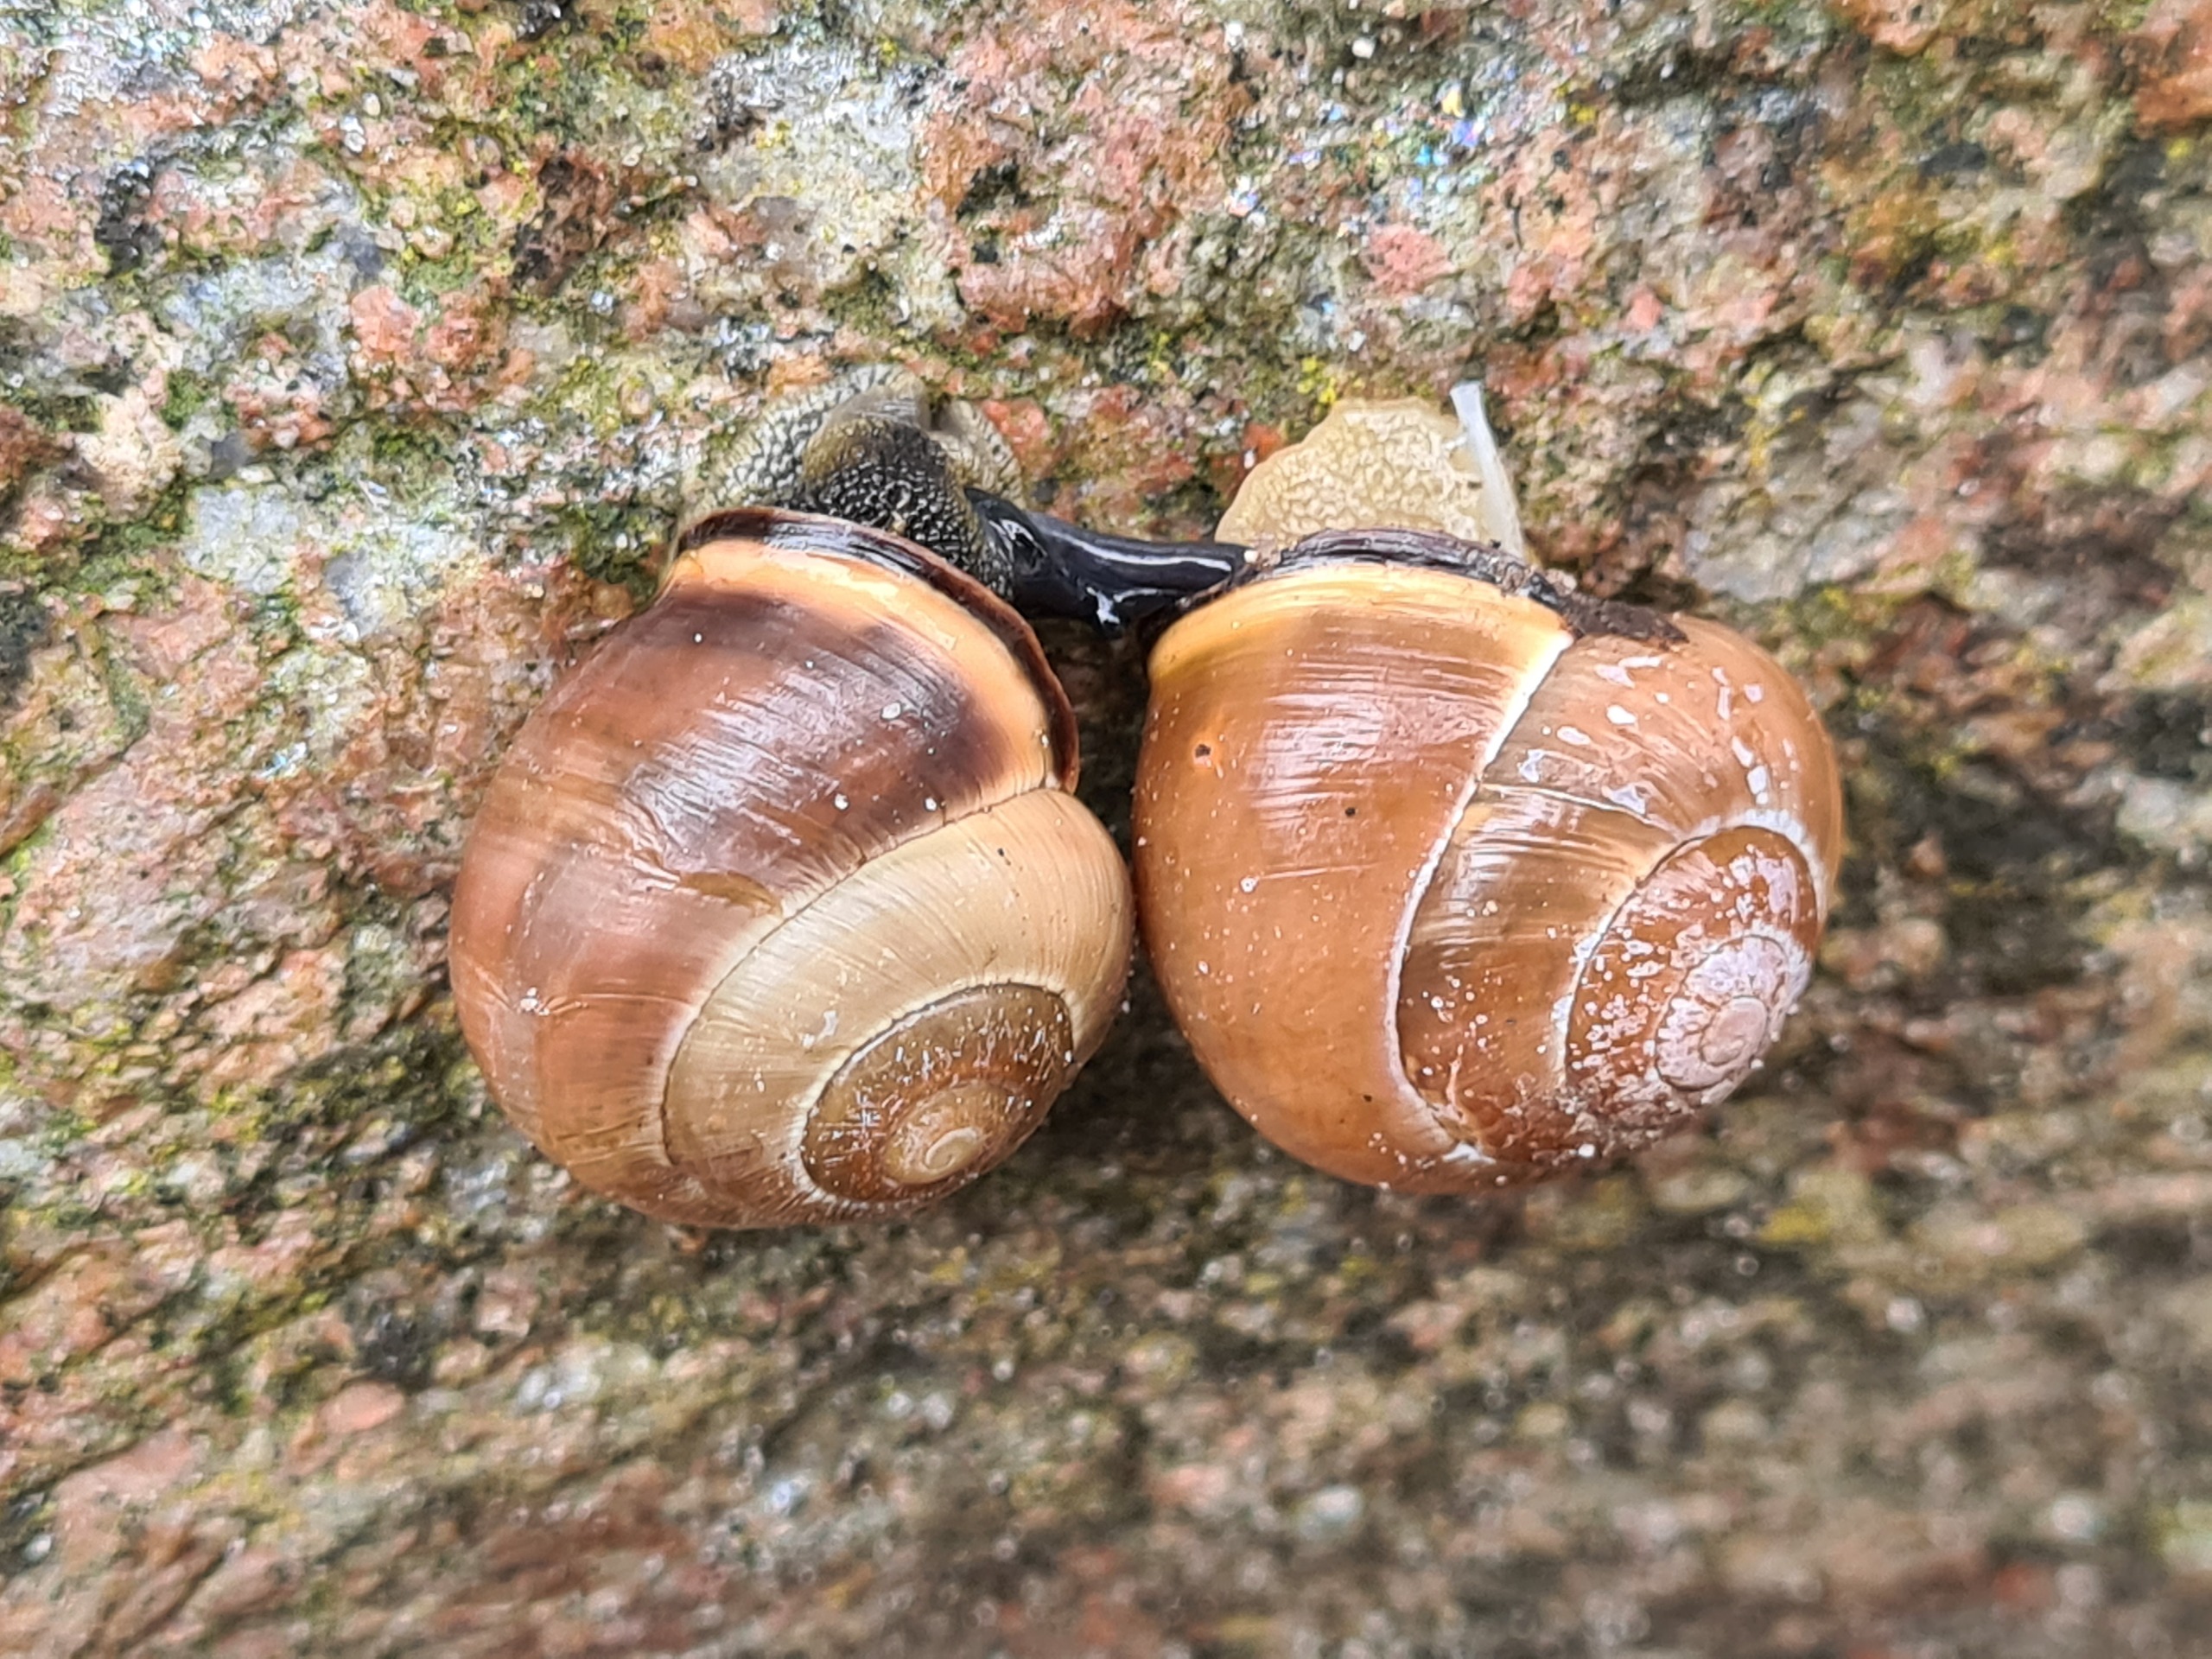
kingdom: Animalia
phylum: Mollusca
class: Gastropoda
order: Stylommatophora
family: Helicidae
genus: Cepaea
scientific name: Cepaea nemoralis
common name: Lundsnegl
